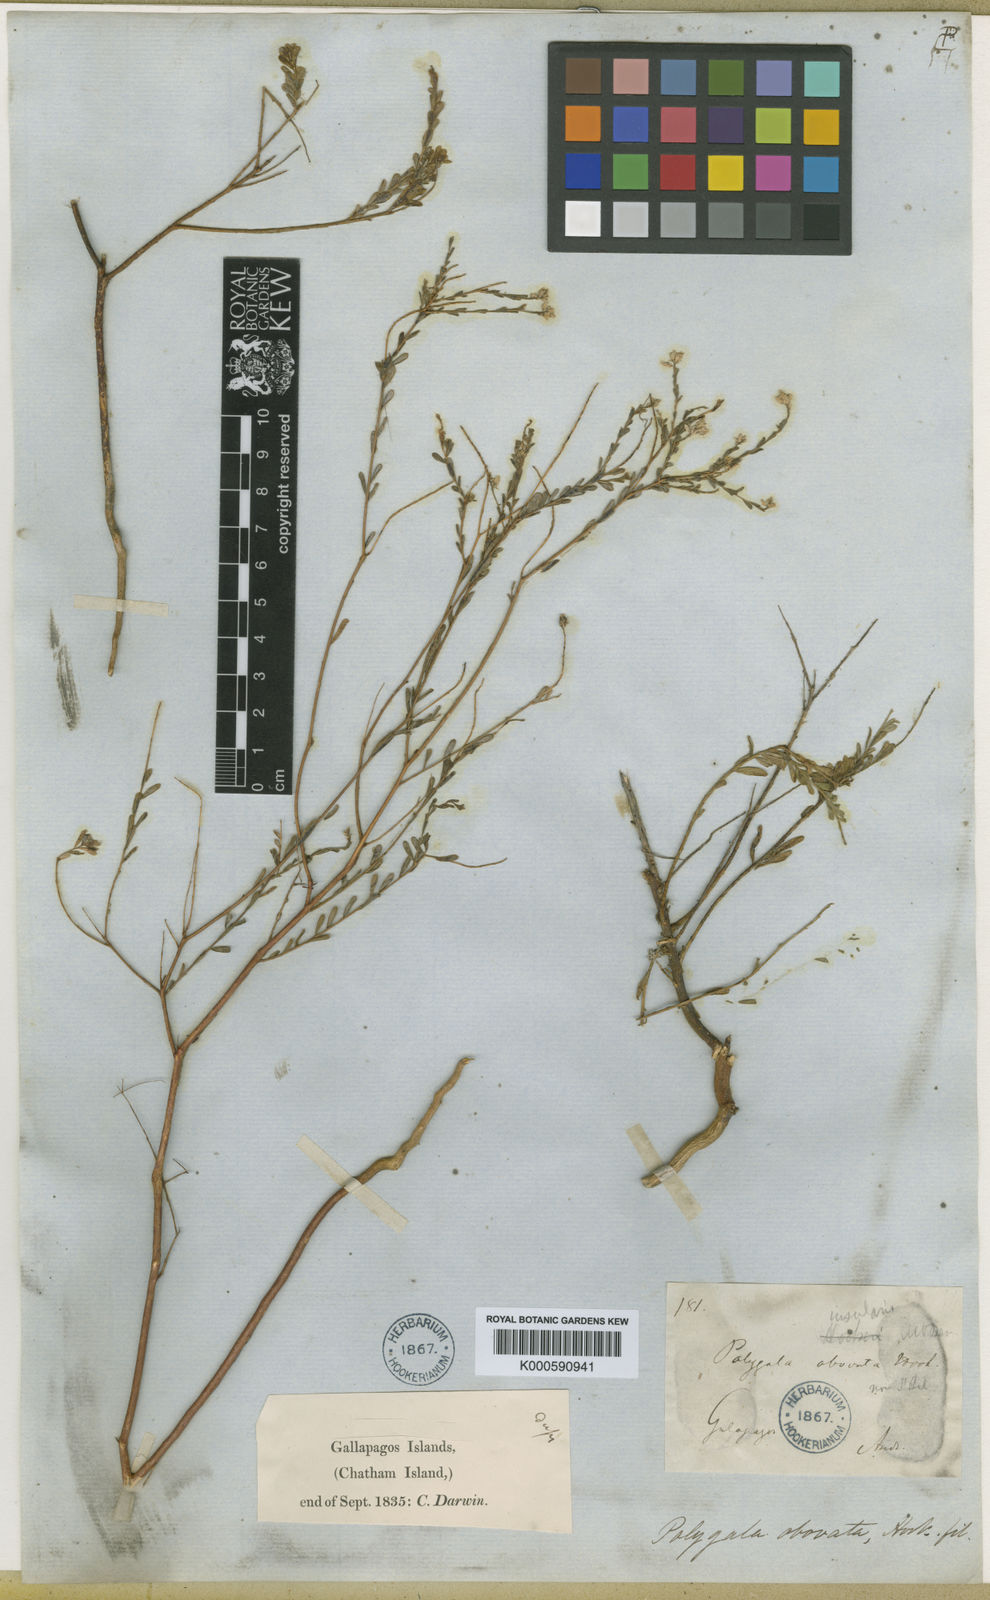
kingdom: Plantae
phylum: Tracheophyta
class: Magnoliopsida
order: Fabales
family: Polygalaceae
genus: Polygala
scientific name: Polygala galapageia
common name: Galapagos milkwort
